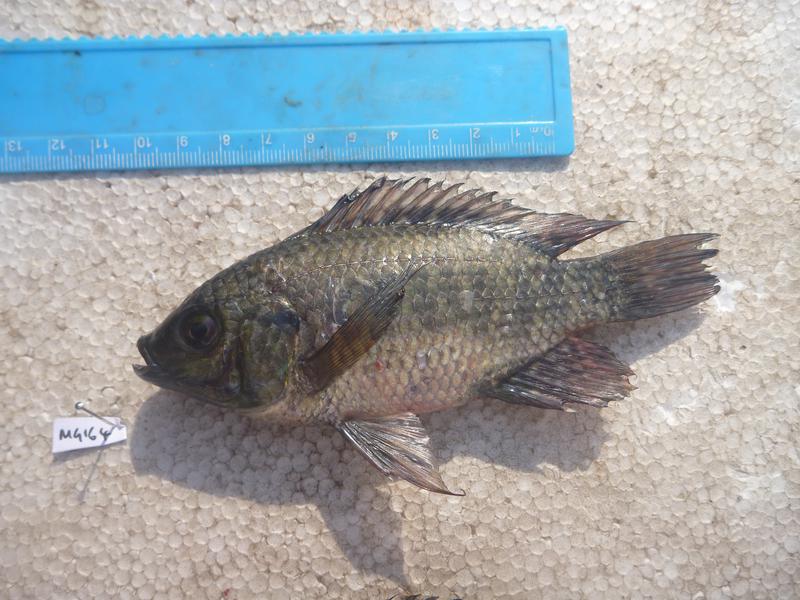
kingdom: Animalia
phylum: Chordata
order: Perciformes
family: Cichlidae
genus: Oreochromis
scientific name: Oreochromis leucostictus
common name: Blue spotted tilapia
